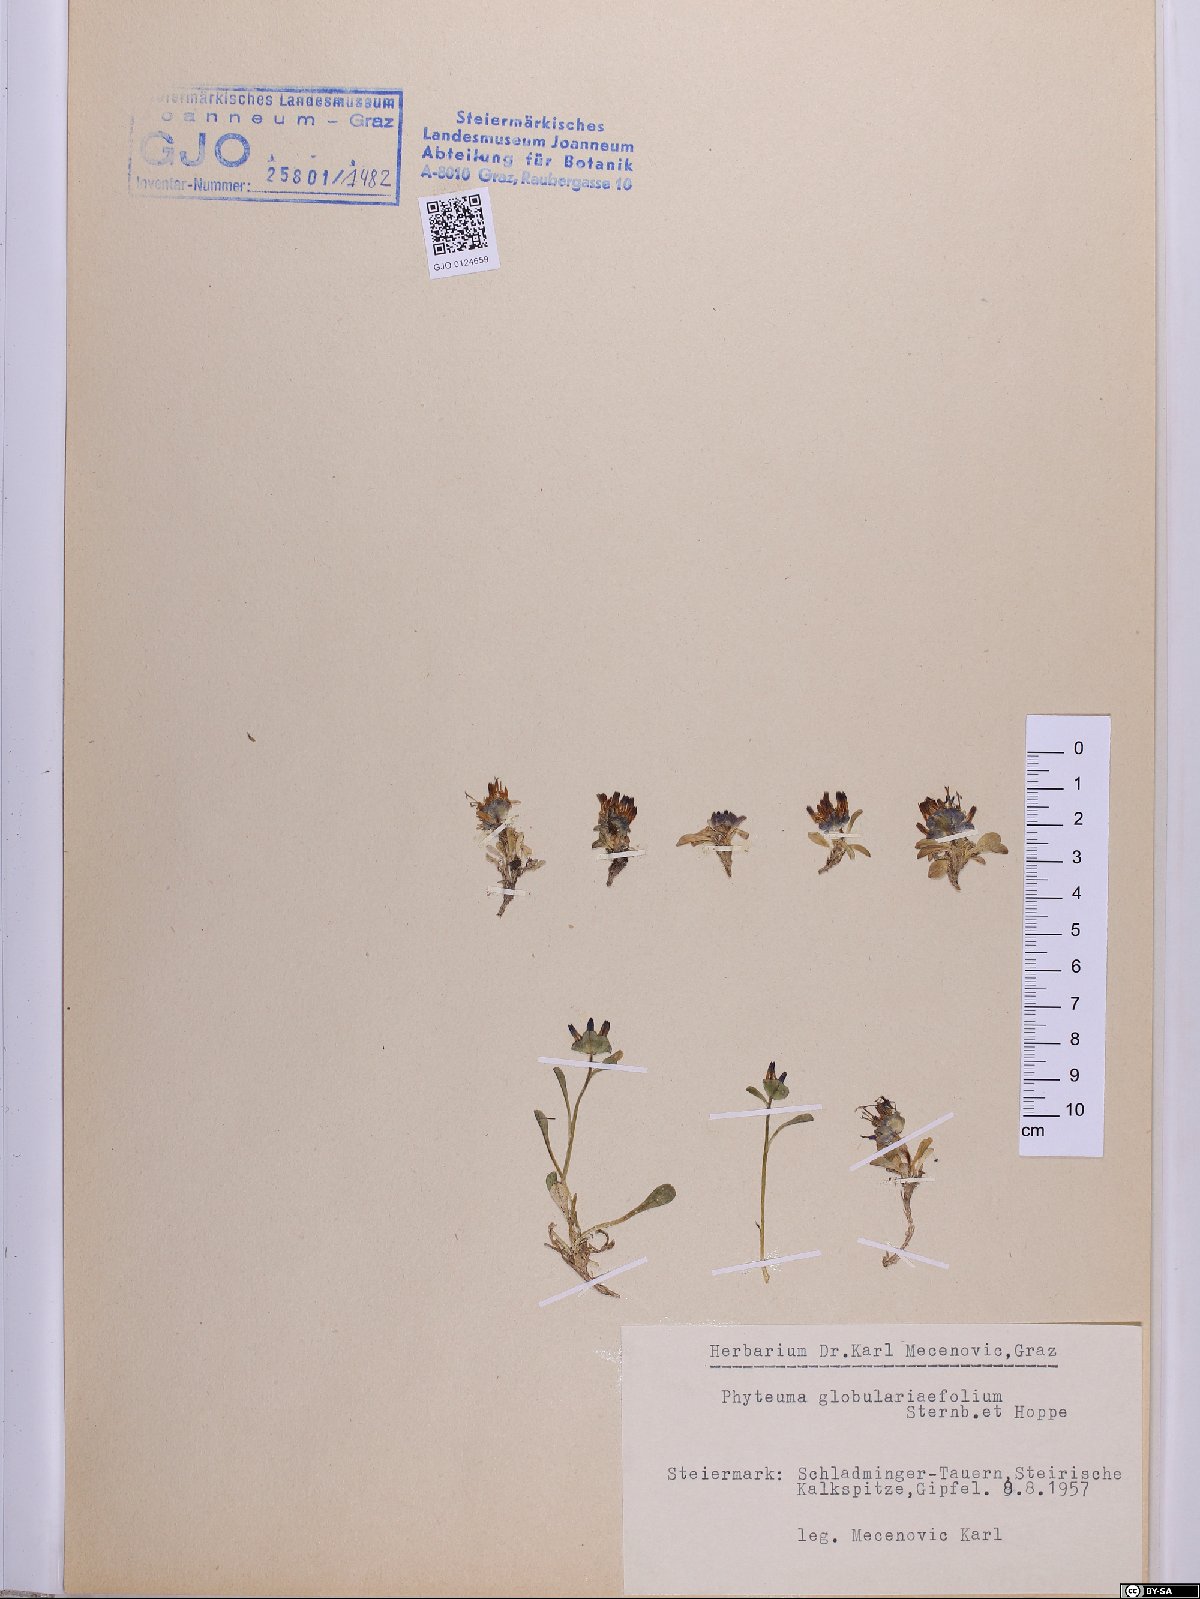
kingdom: Plantae
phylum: Tracheophyta
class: Magnoliopsida
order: Asterales
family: Campanulaceae
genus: Phyteuma
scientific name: Phyteuma globulariifolium
